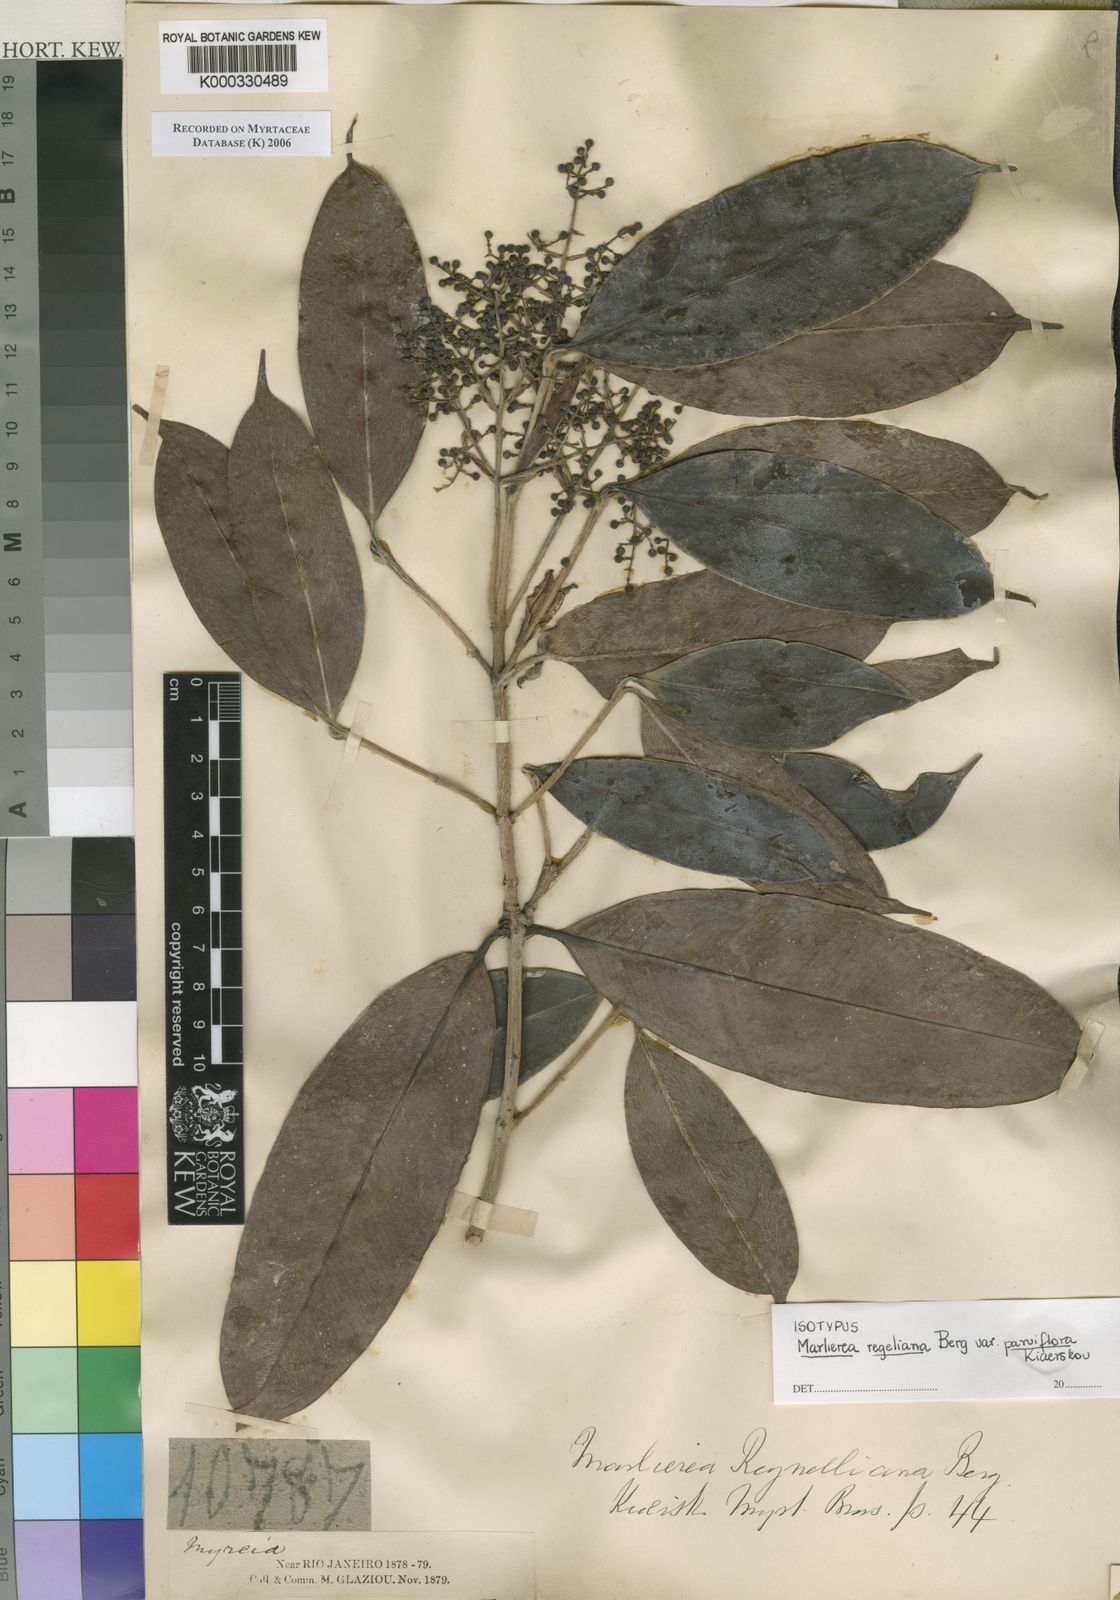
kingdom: Plantae
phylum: Tracheophyta
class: Magnoliopsida
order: Myrtales
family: Myrtaceae
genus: Myrcia
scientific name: Myrcia neoregeliana
